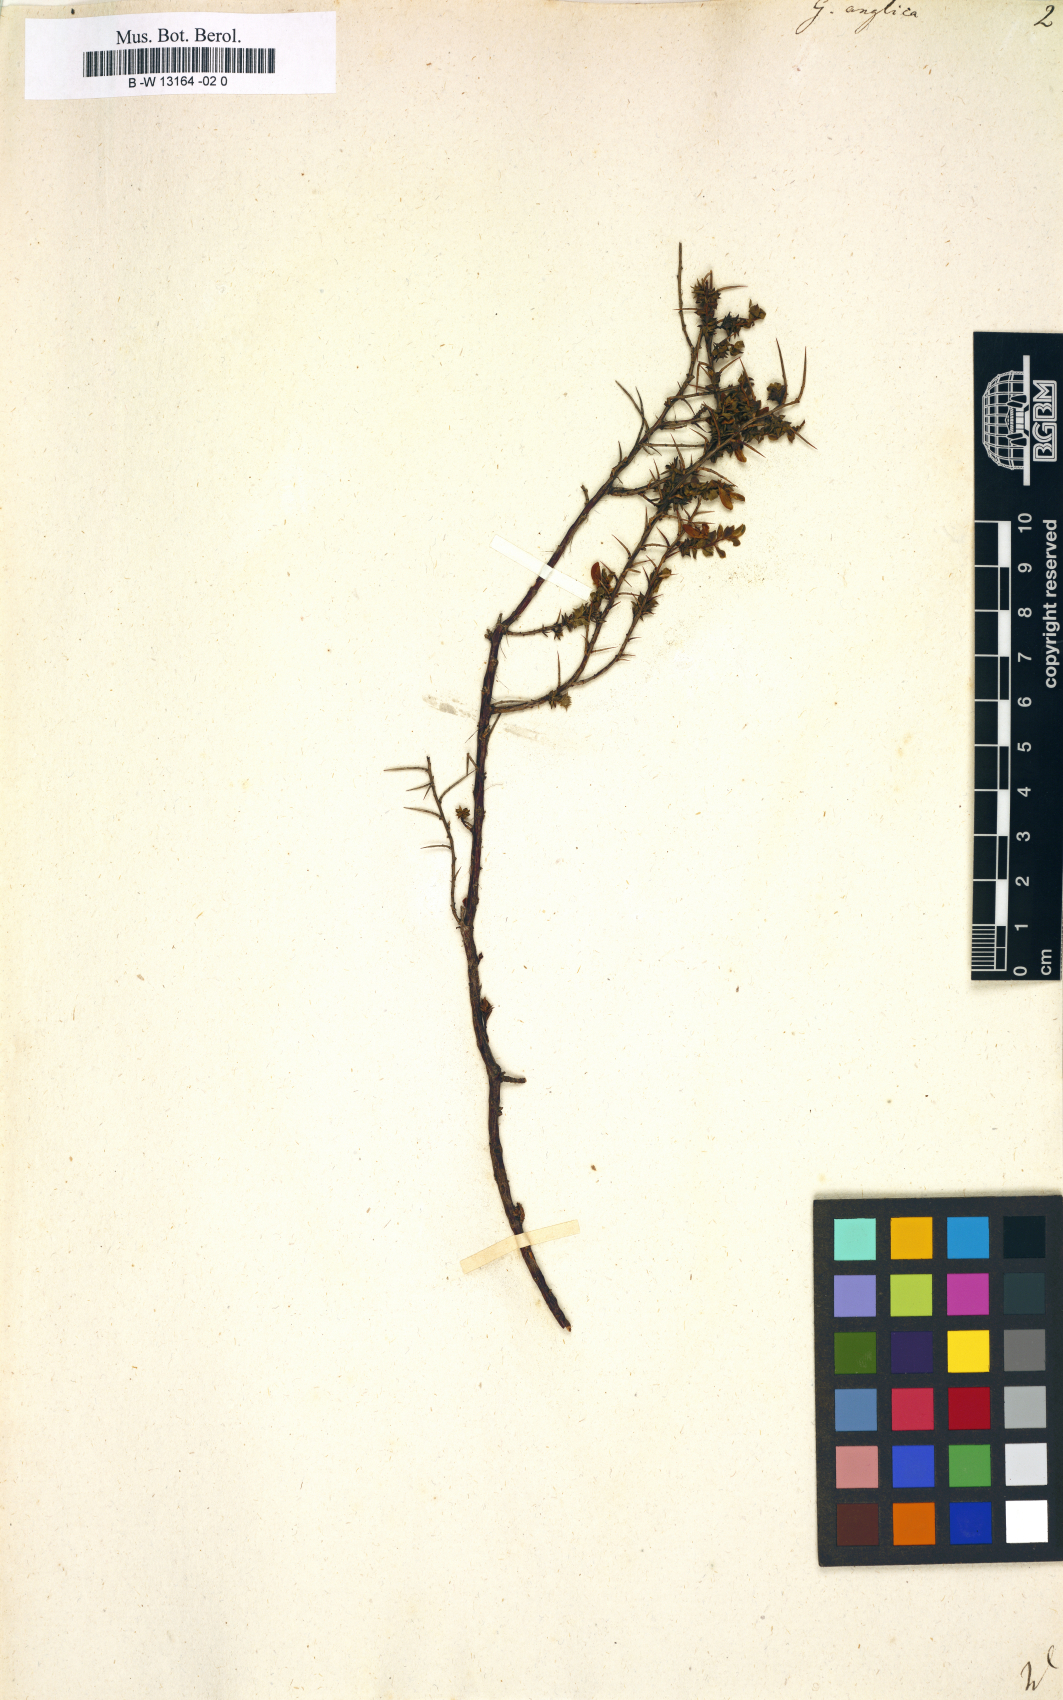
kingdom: Plantae
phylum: Tracheophyta
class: Magnoliopsida
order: Fabales
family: Fabaceae
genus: Genista
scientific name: Genista anglica
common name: Petty whin
